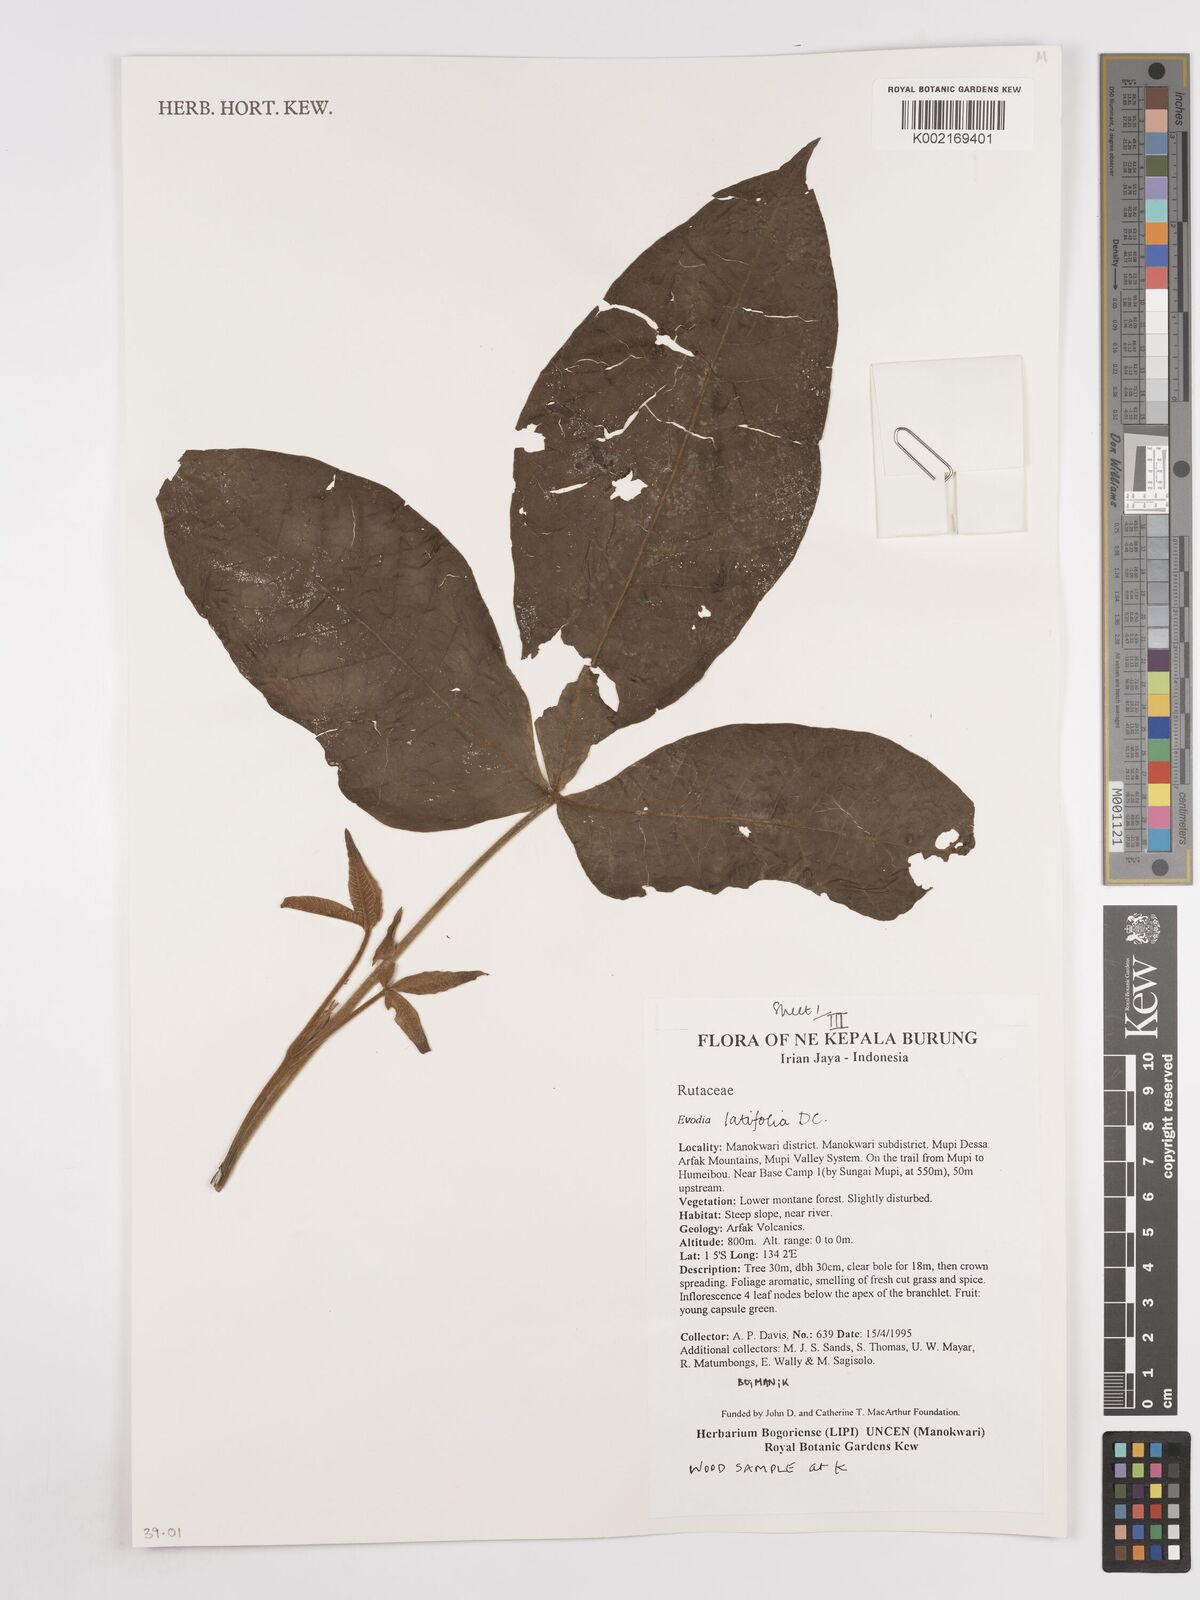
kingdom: Plantae
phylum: Tracheophyta
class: Magnoliopsida
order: Sapindales
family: Rutaceae
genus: Melicope
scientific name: Melicope latifolia
